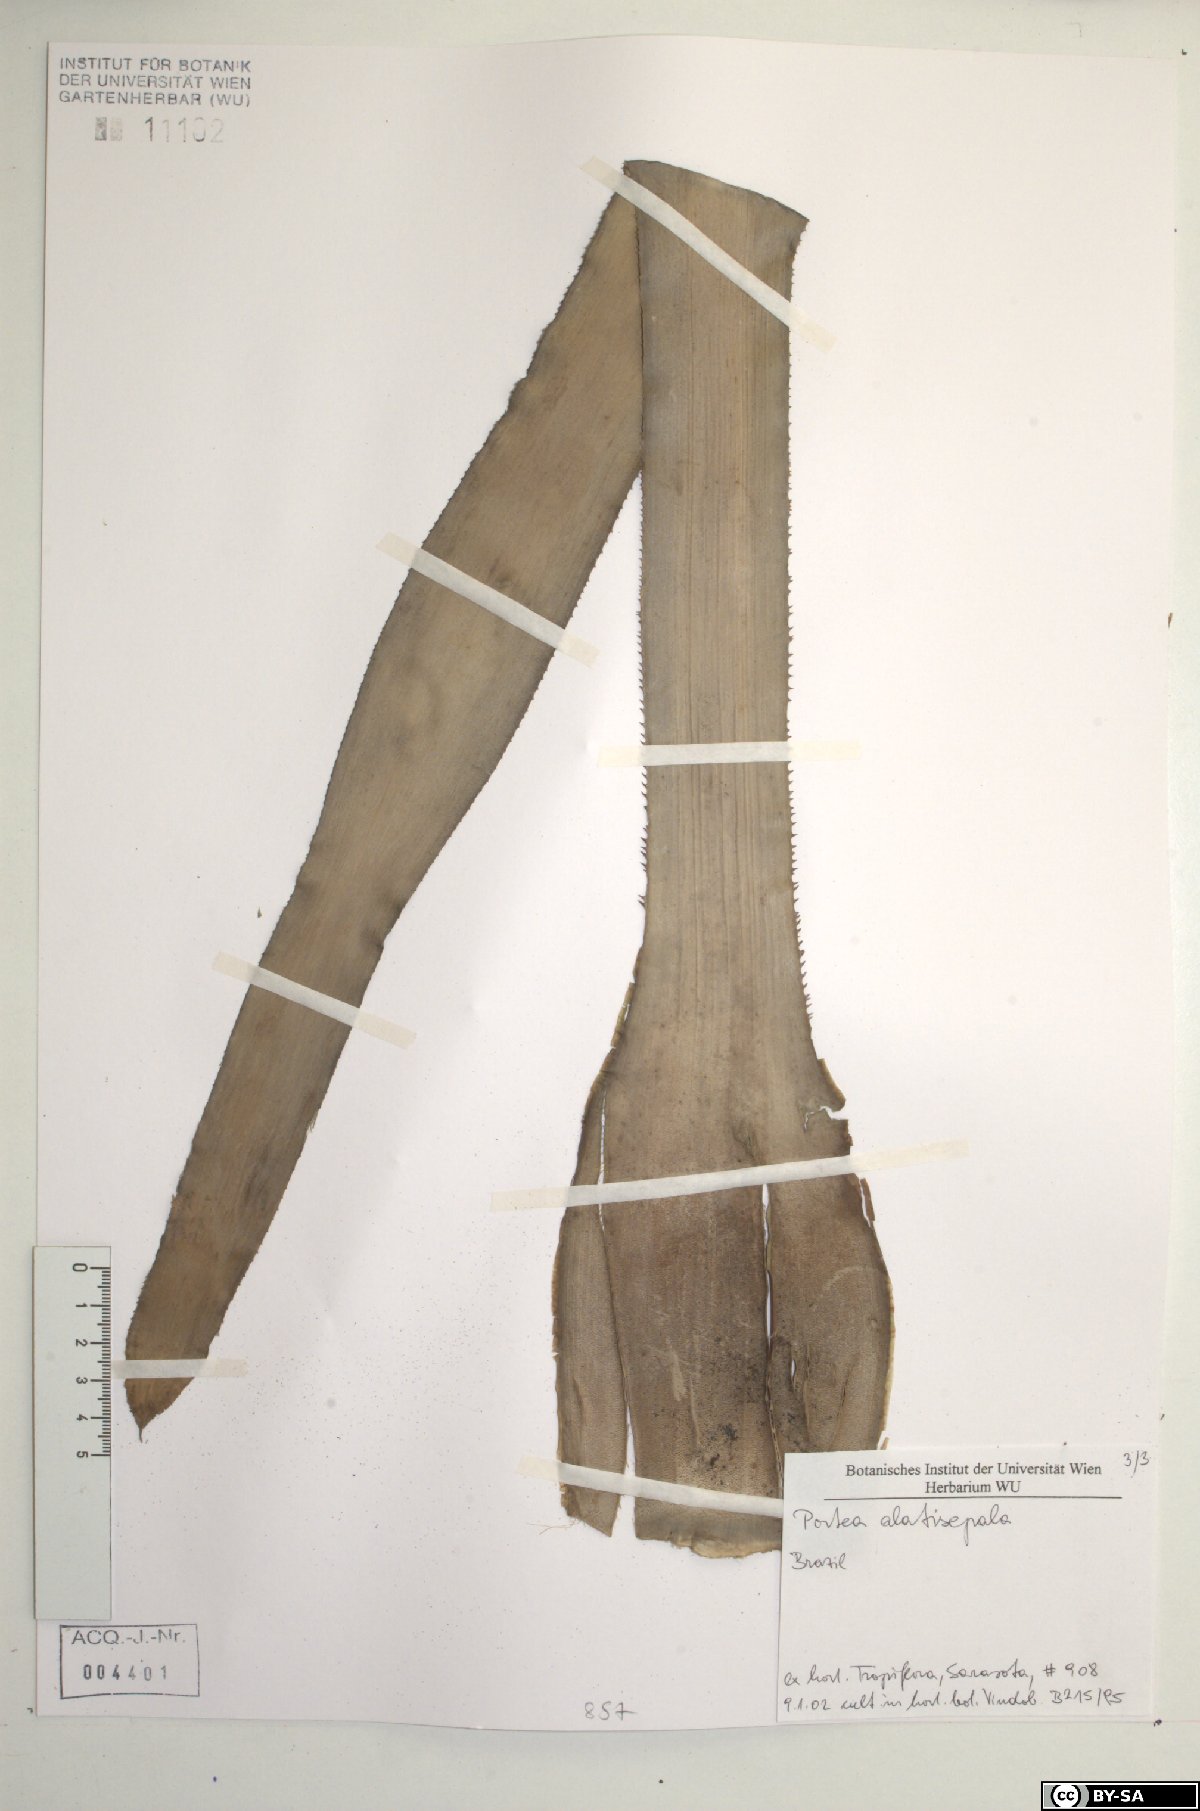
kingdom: Plantae
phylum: Tracheophyta
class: Liliopsida
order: Poales
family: Bromeliaceae
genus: Portea
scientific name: Portea alatisepala
